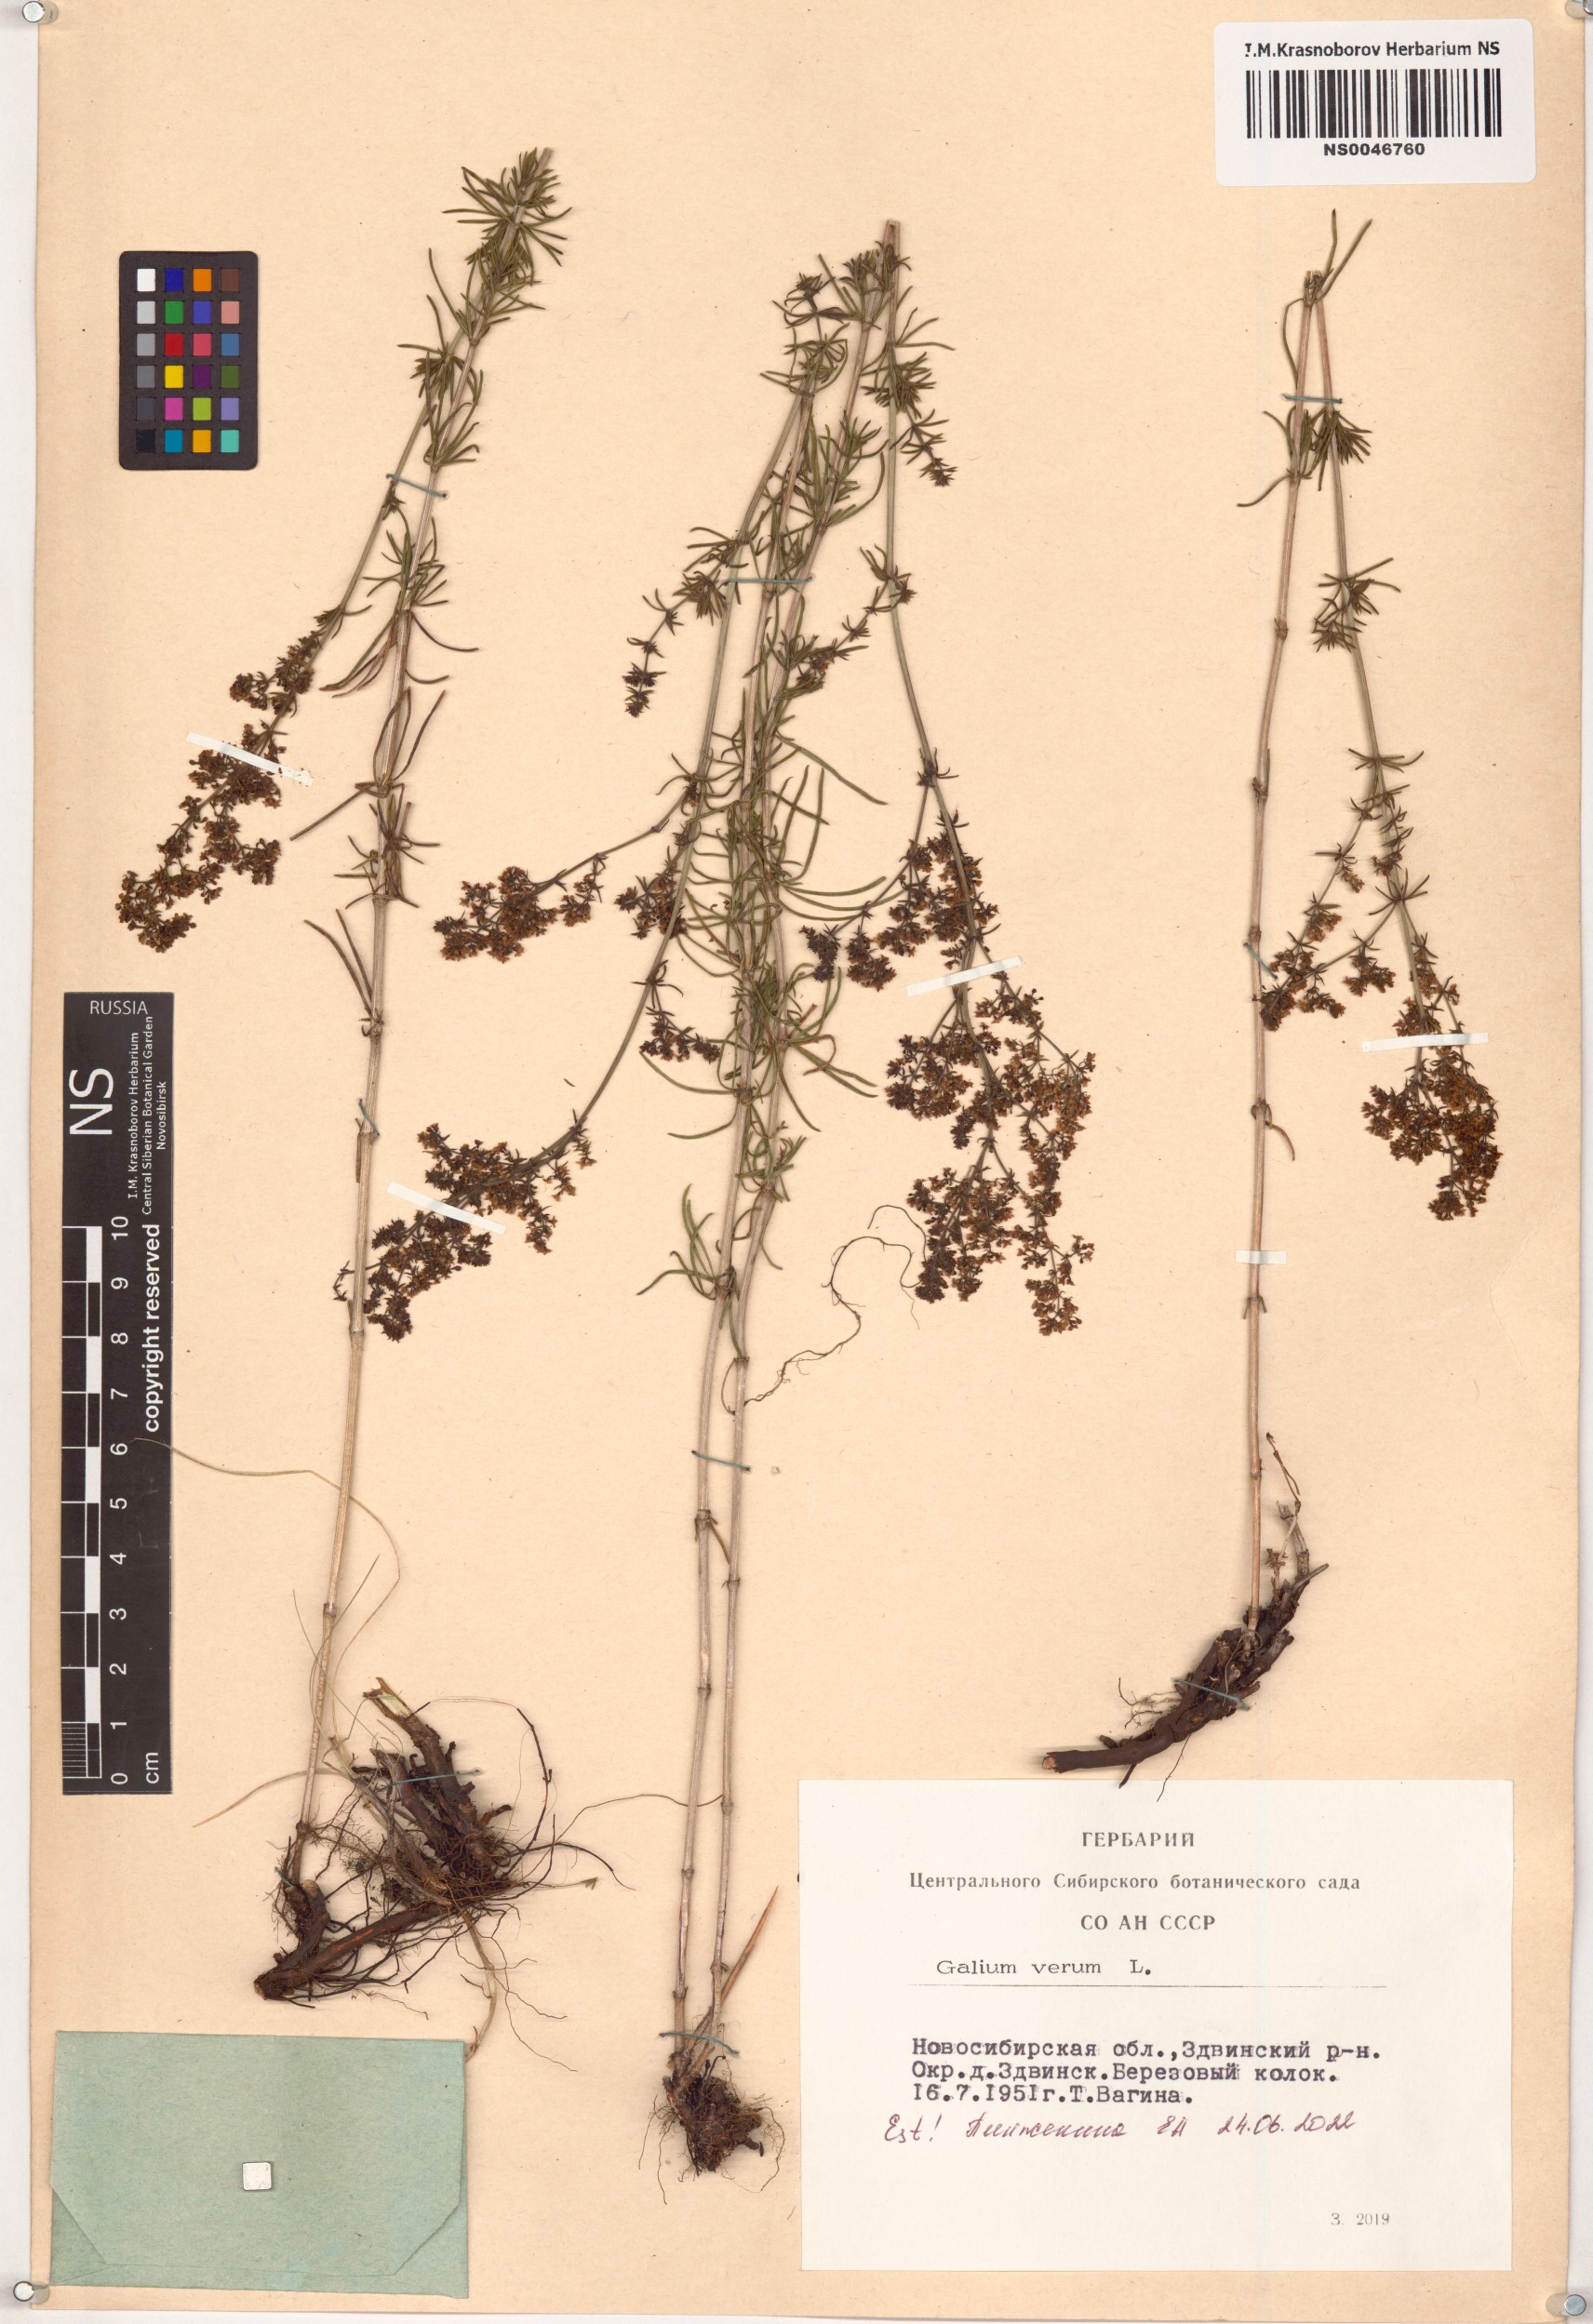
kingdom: Plantae
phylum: Tracheophyta
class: Magnoliopsida
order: Gentianales
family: Rubiaceae
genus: Galium
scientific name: Galium verum
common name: Lady's bedstraw
